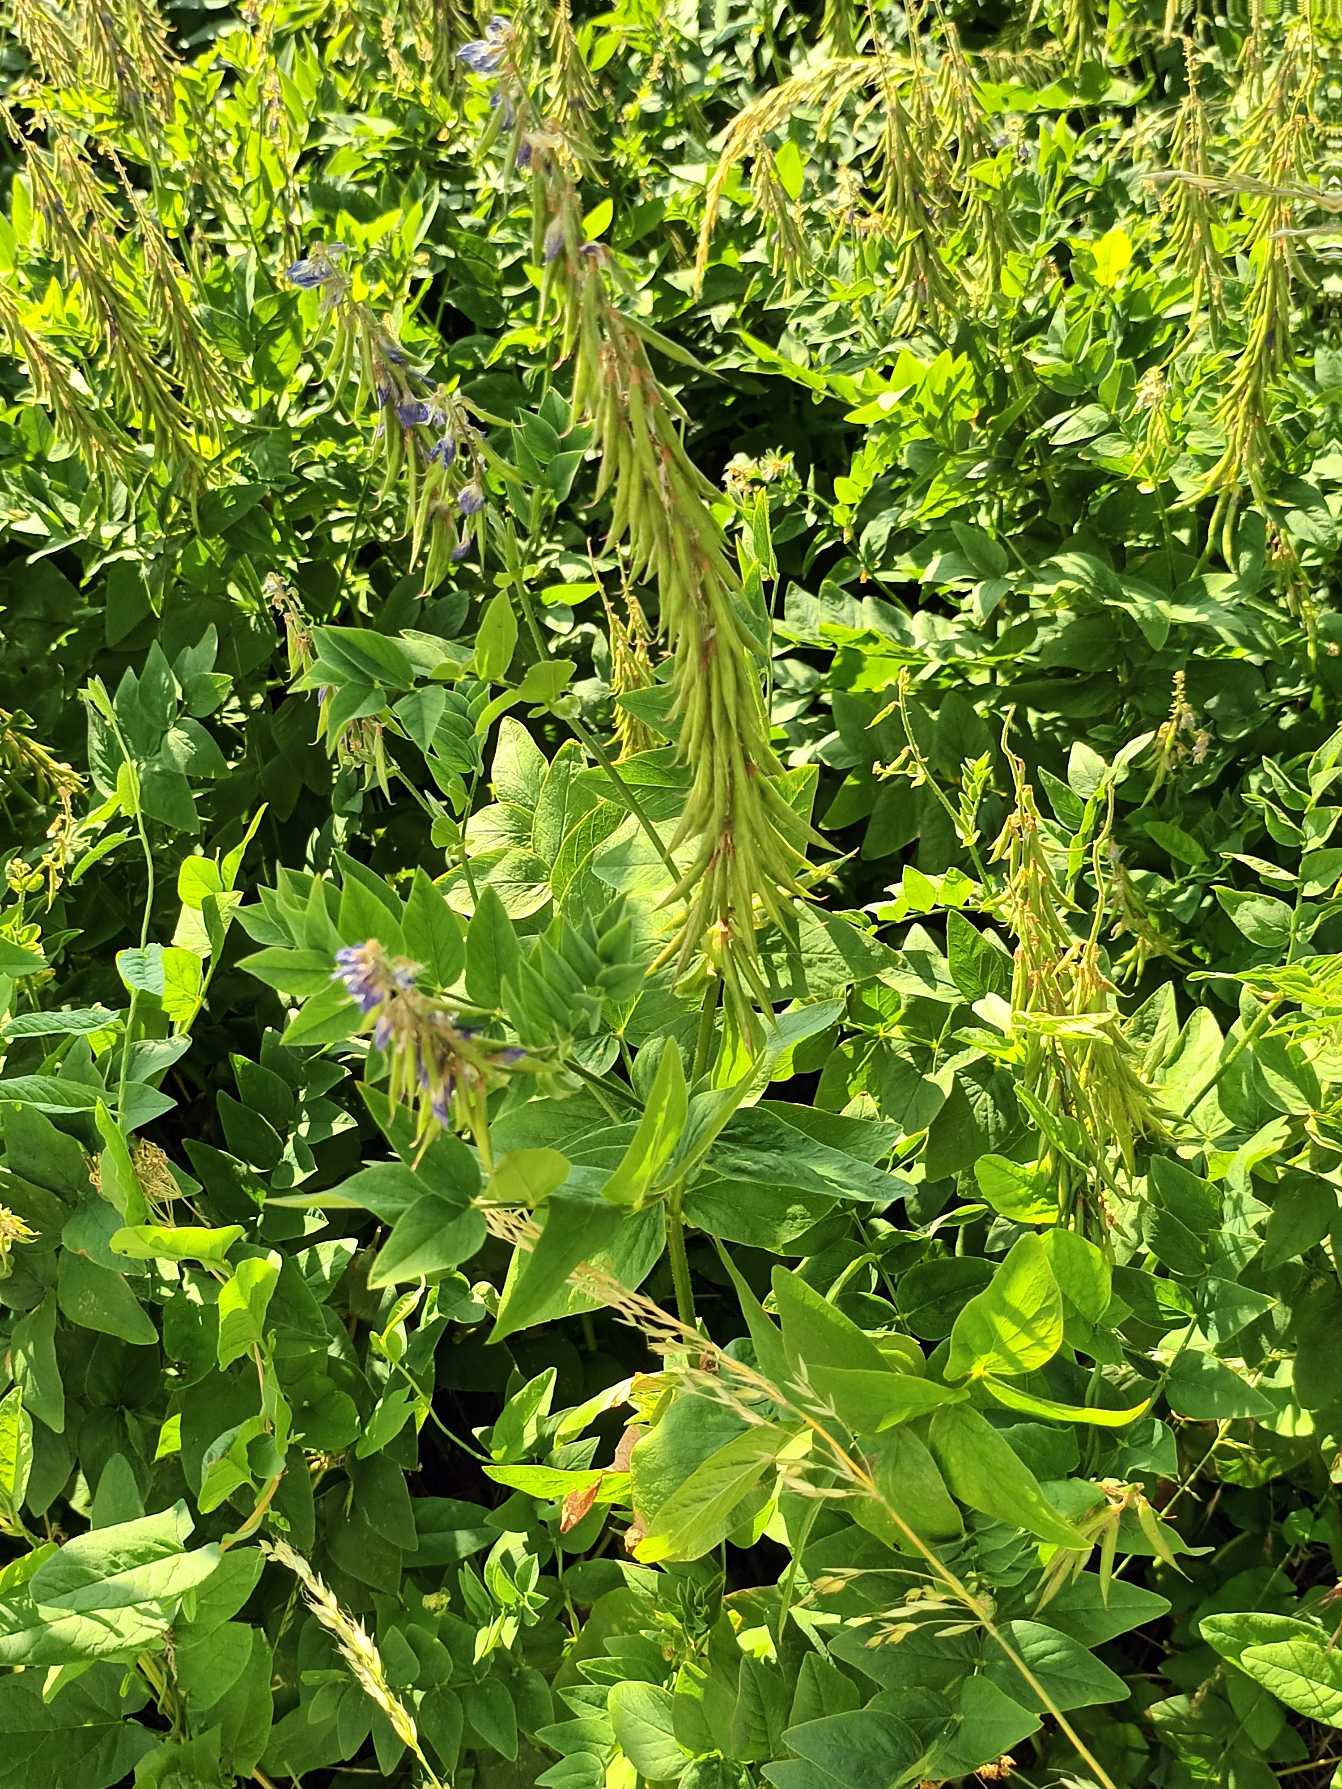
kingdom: Plantae
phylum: Tracheophyta
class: Magnoliopsida
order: Fabales
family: Fabaceae
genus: Galega
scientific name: Galega orientalis
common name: Blå stregbælg
